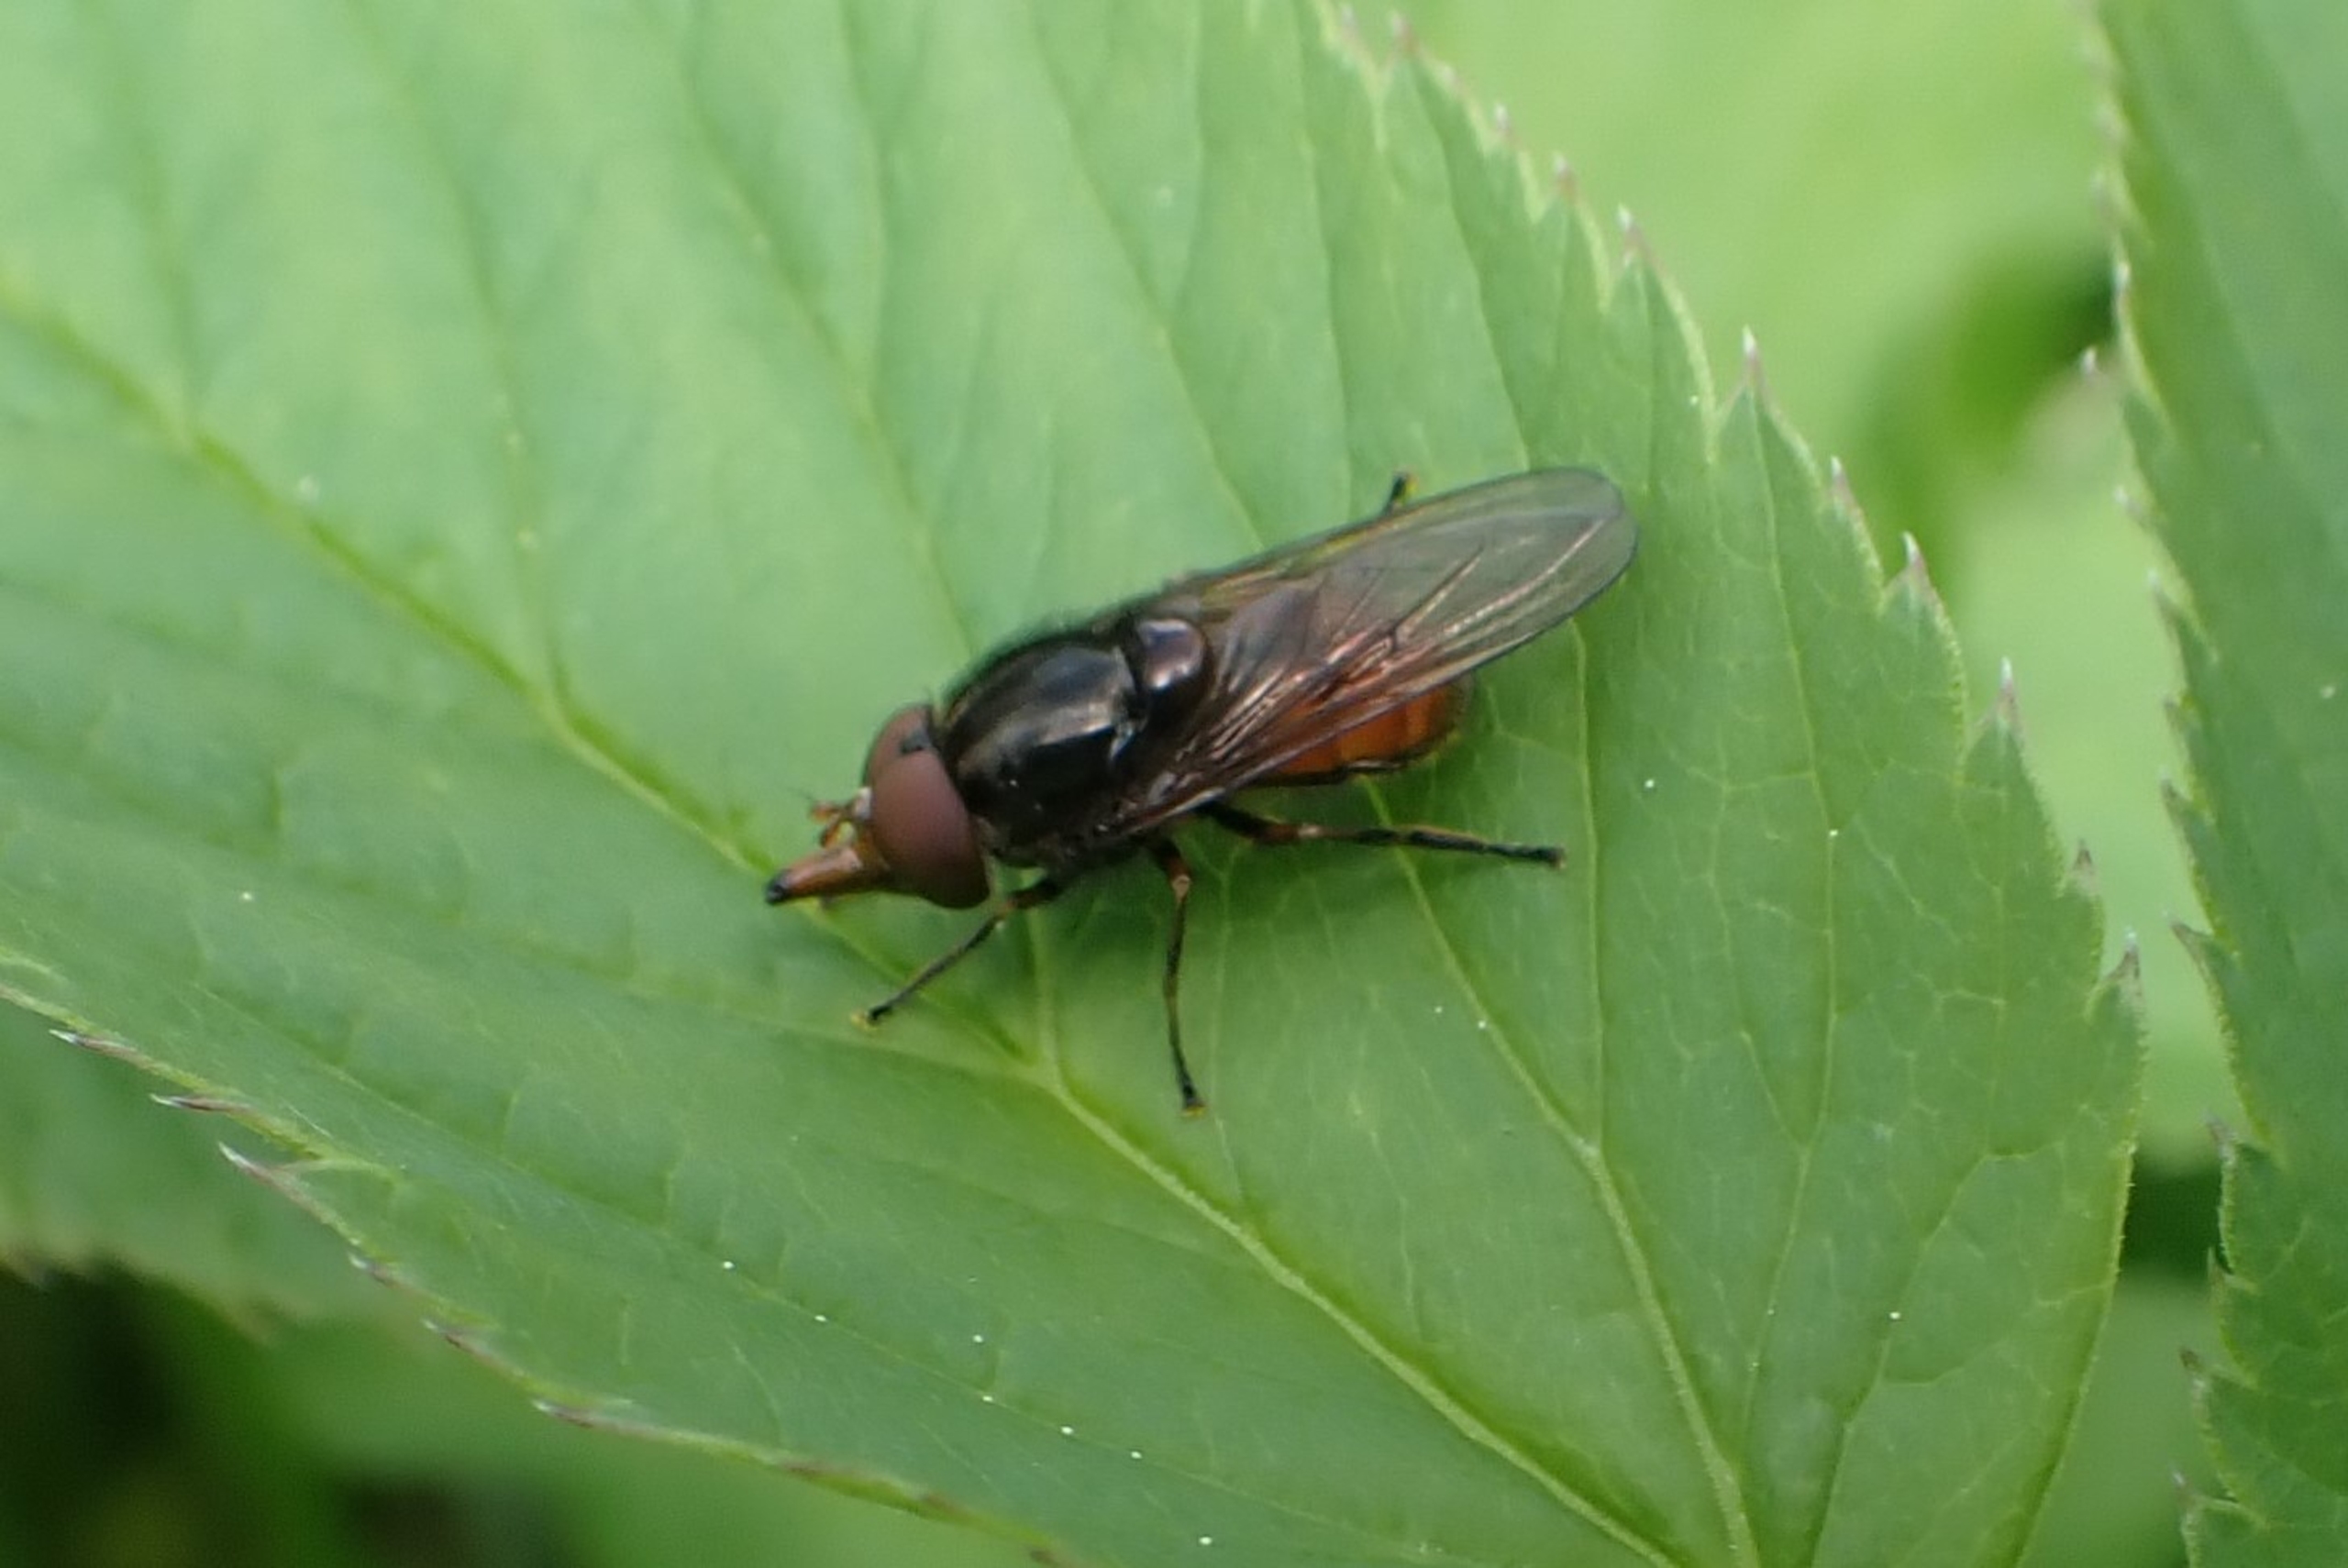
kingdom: Animalia
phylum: Arthropoda
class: Insecta
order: Diptera
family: Syrphidae
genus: Rhingia
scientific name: Rhingia campestris
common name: Mark-snabelsvirreflue
